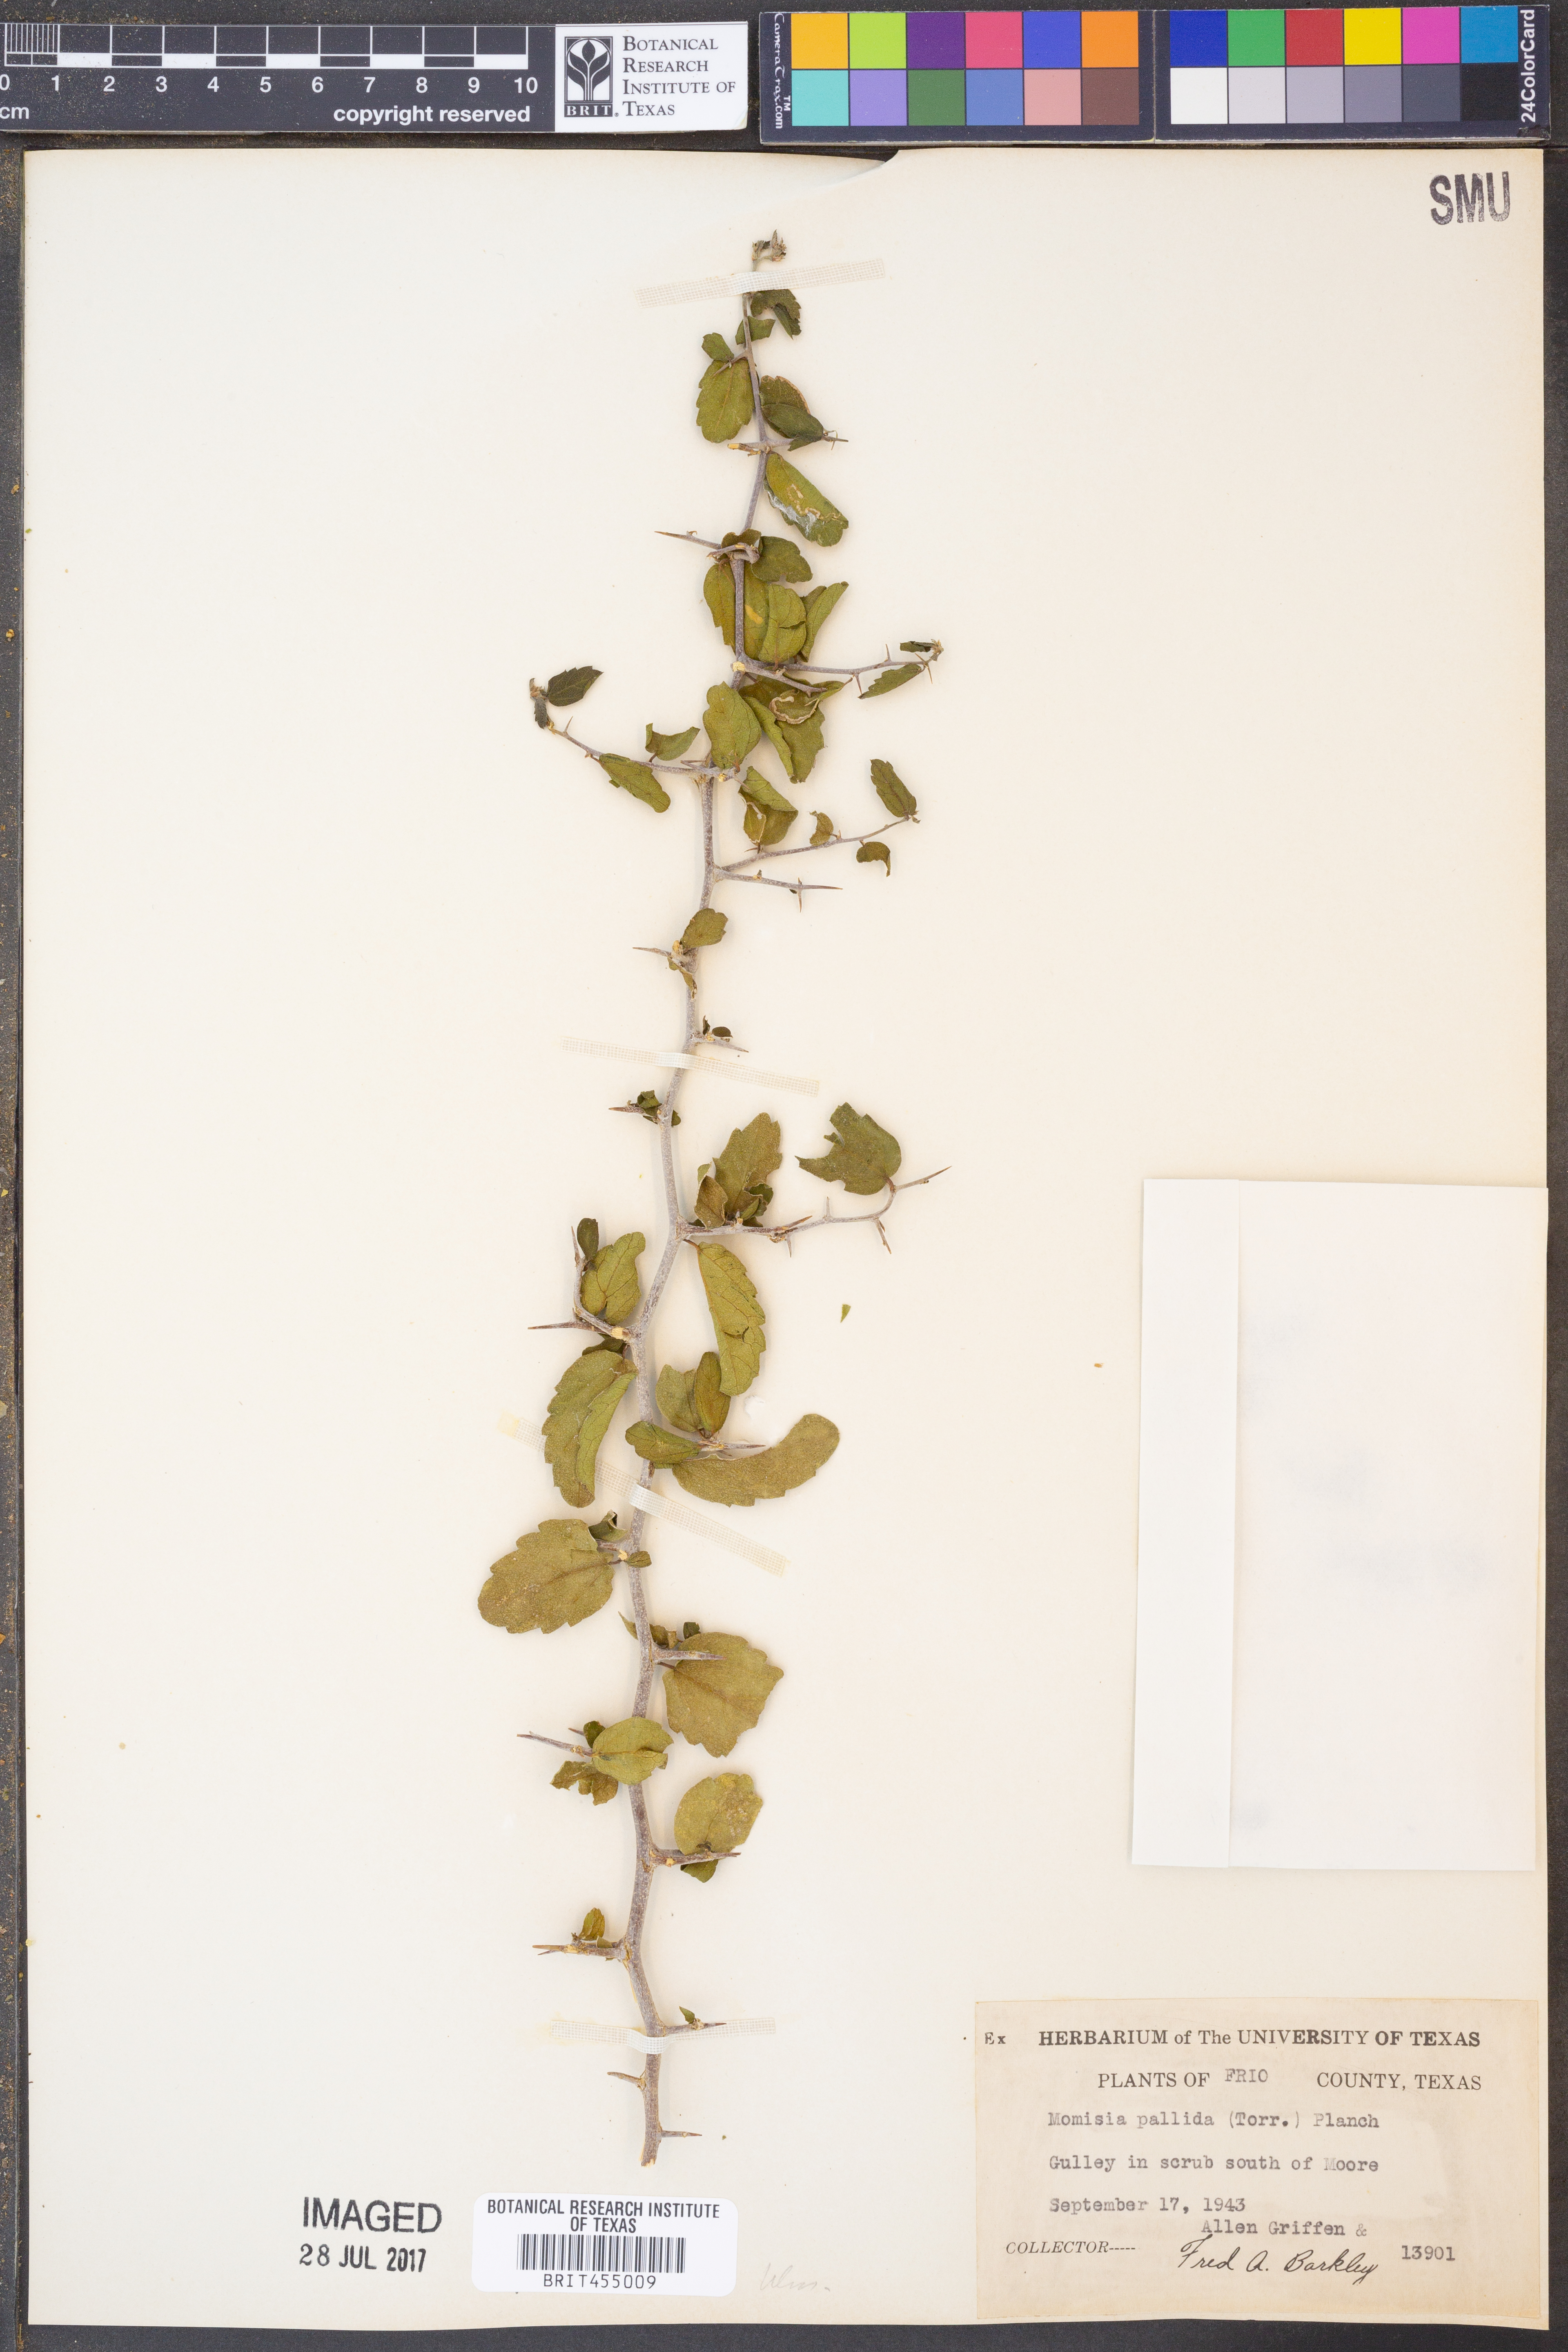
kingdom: Plantae
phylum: Tracheophyta
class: Magnoliopsida
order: Rosales
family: Cannabaceae
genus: Celtis
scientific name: Celtis pallida
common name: Desert hackberry
